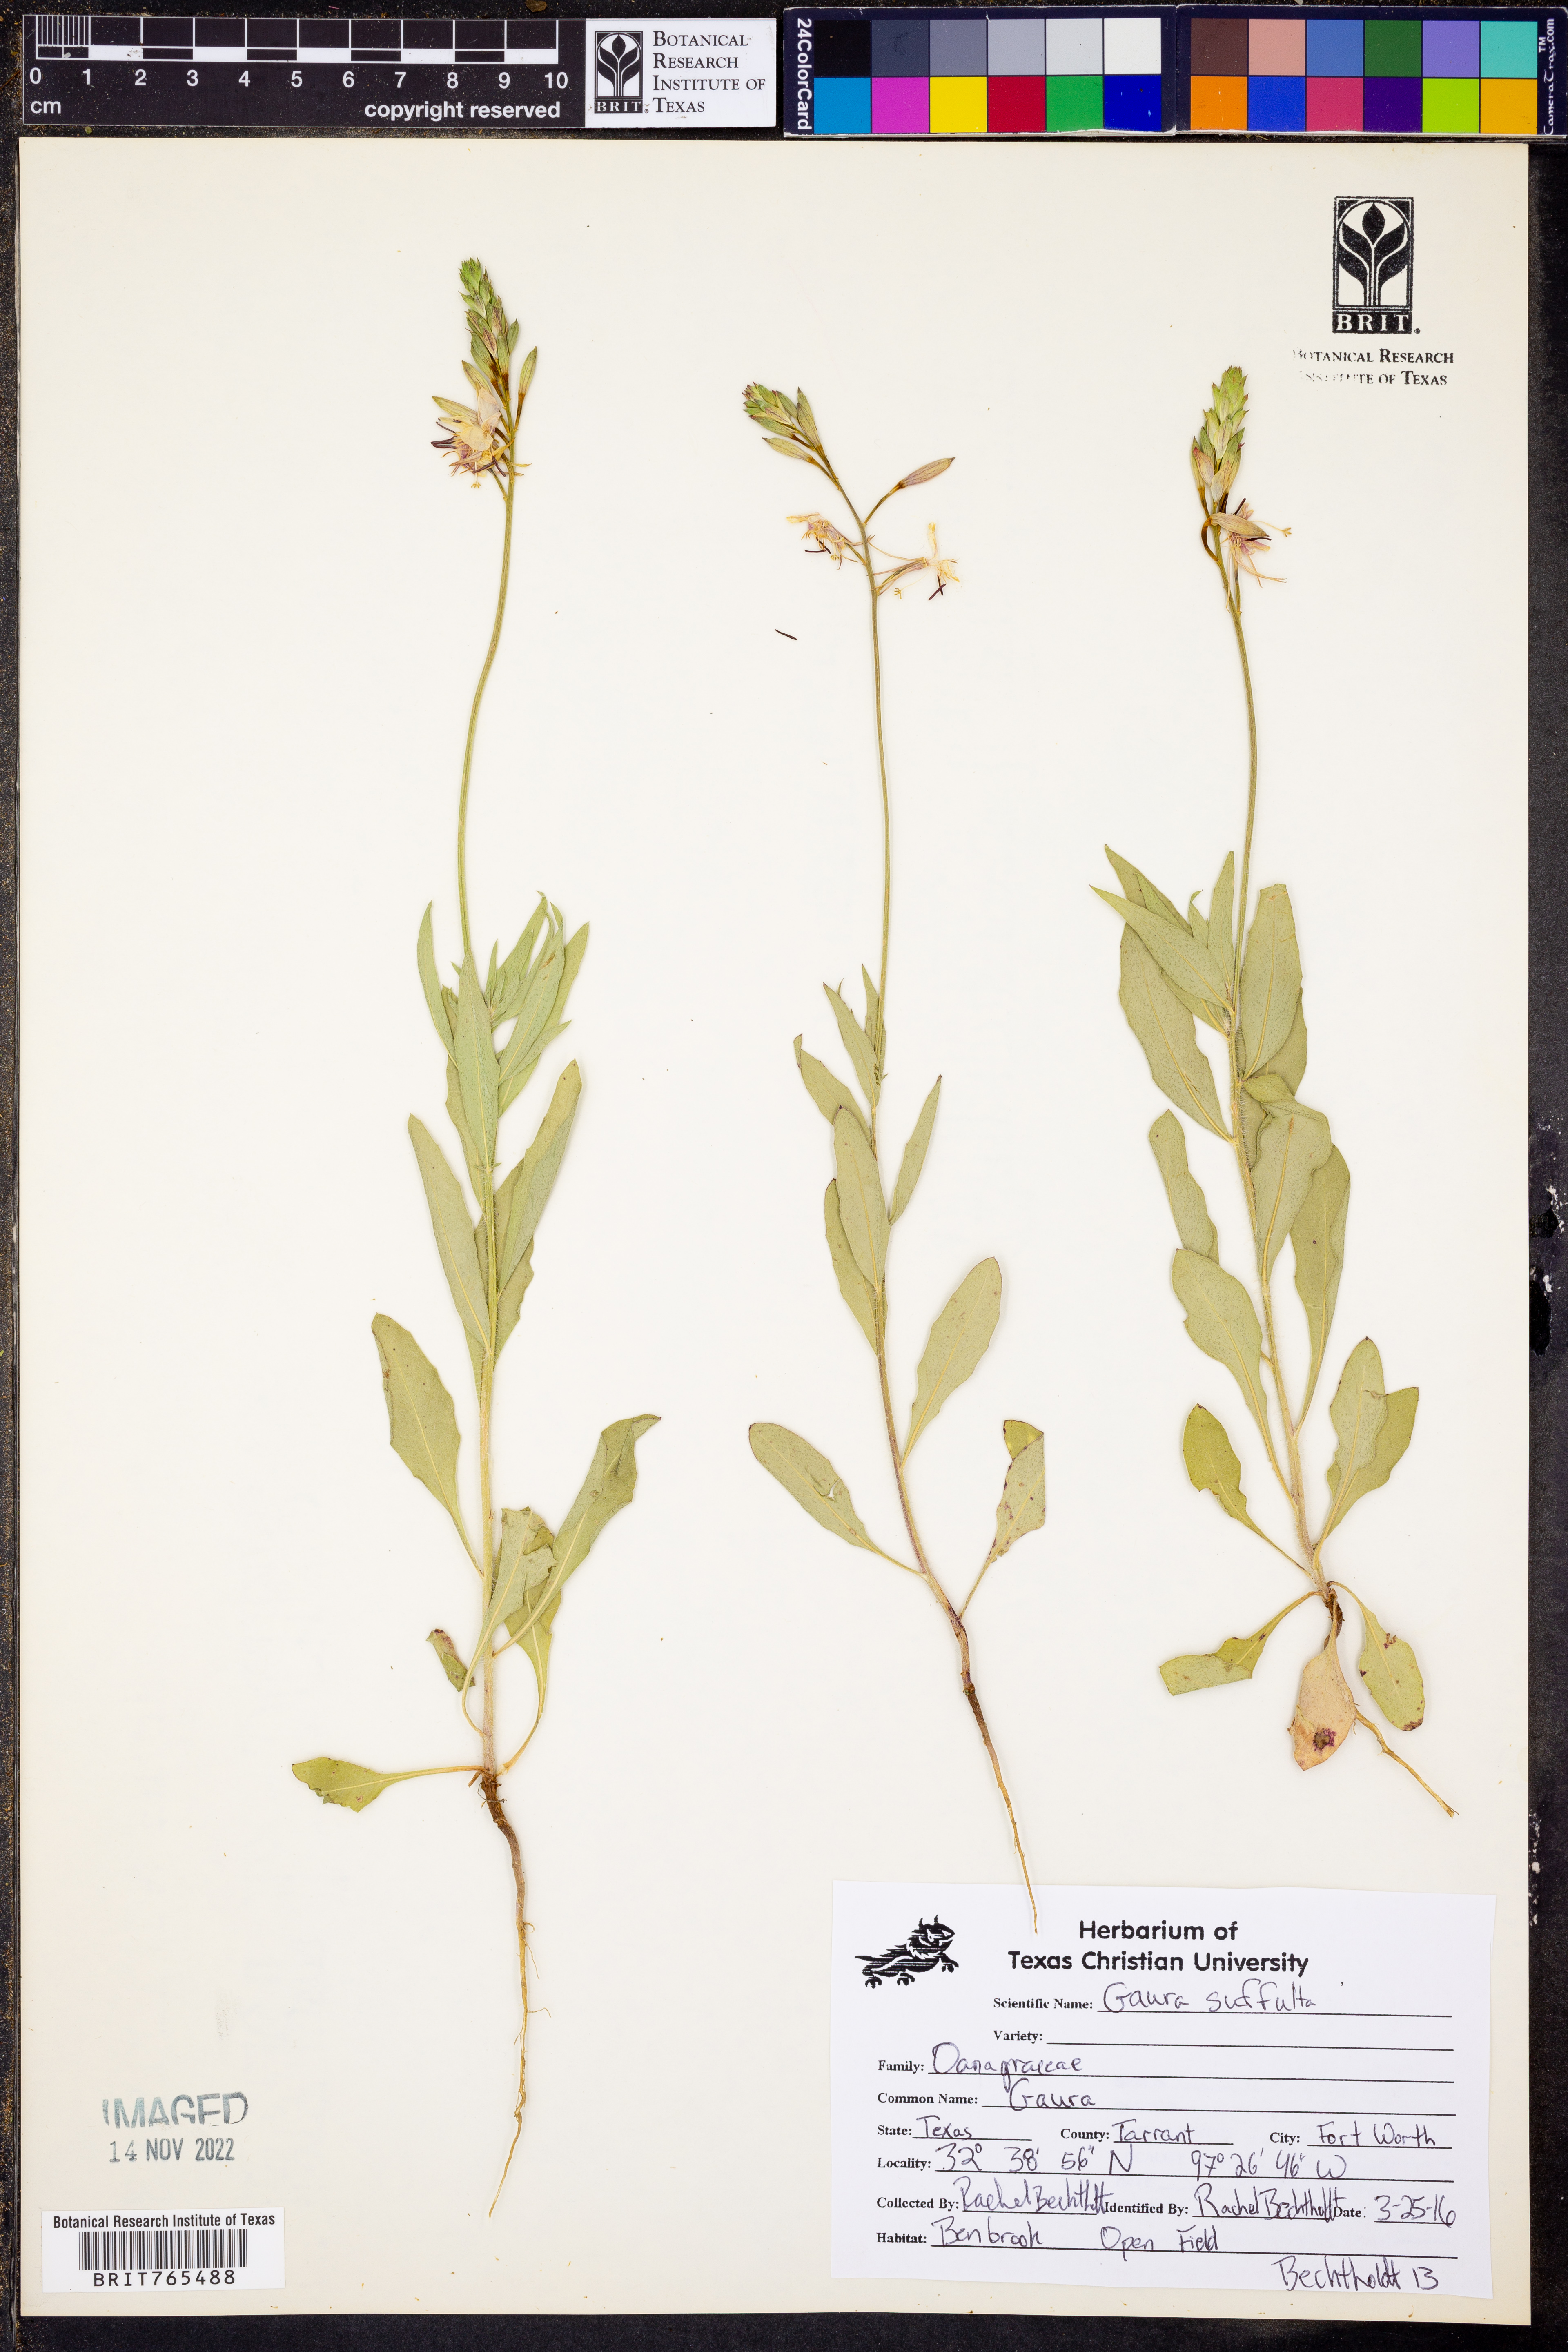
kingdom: Plantae
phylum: Tracheophyta
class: Magnoliopsida
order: Myrtales
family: Onagraceae
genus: Oenothera
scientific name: Oenothera Gaura suffulta
